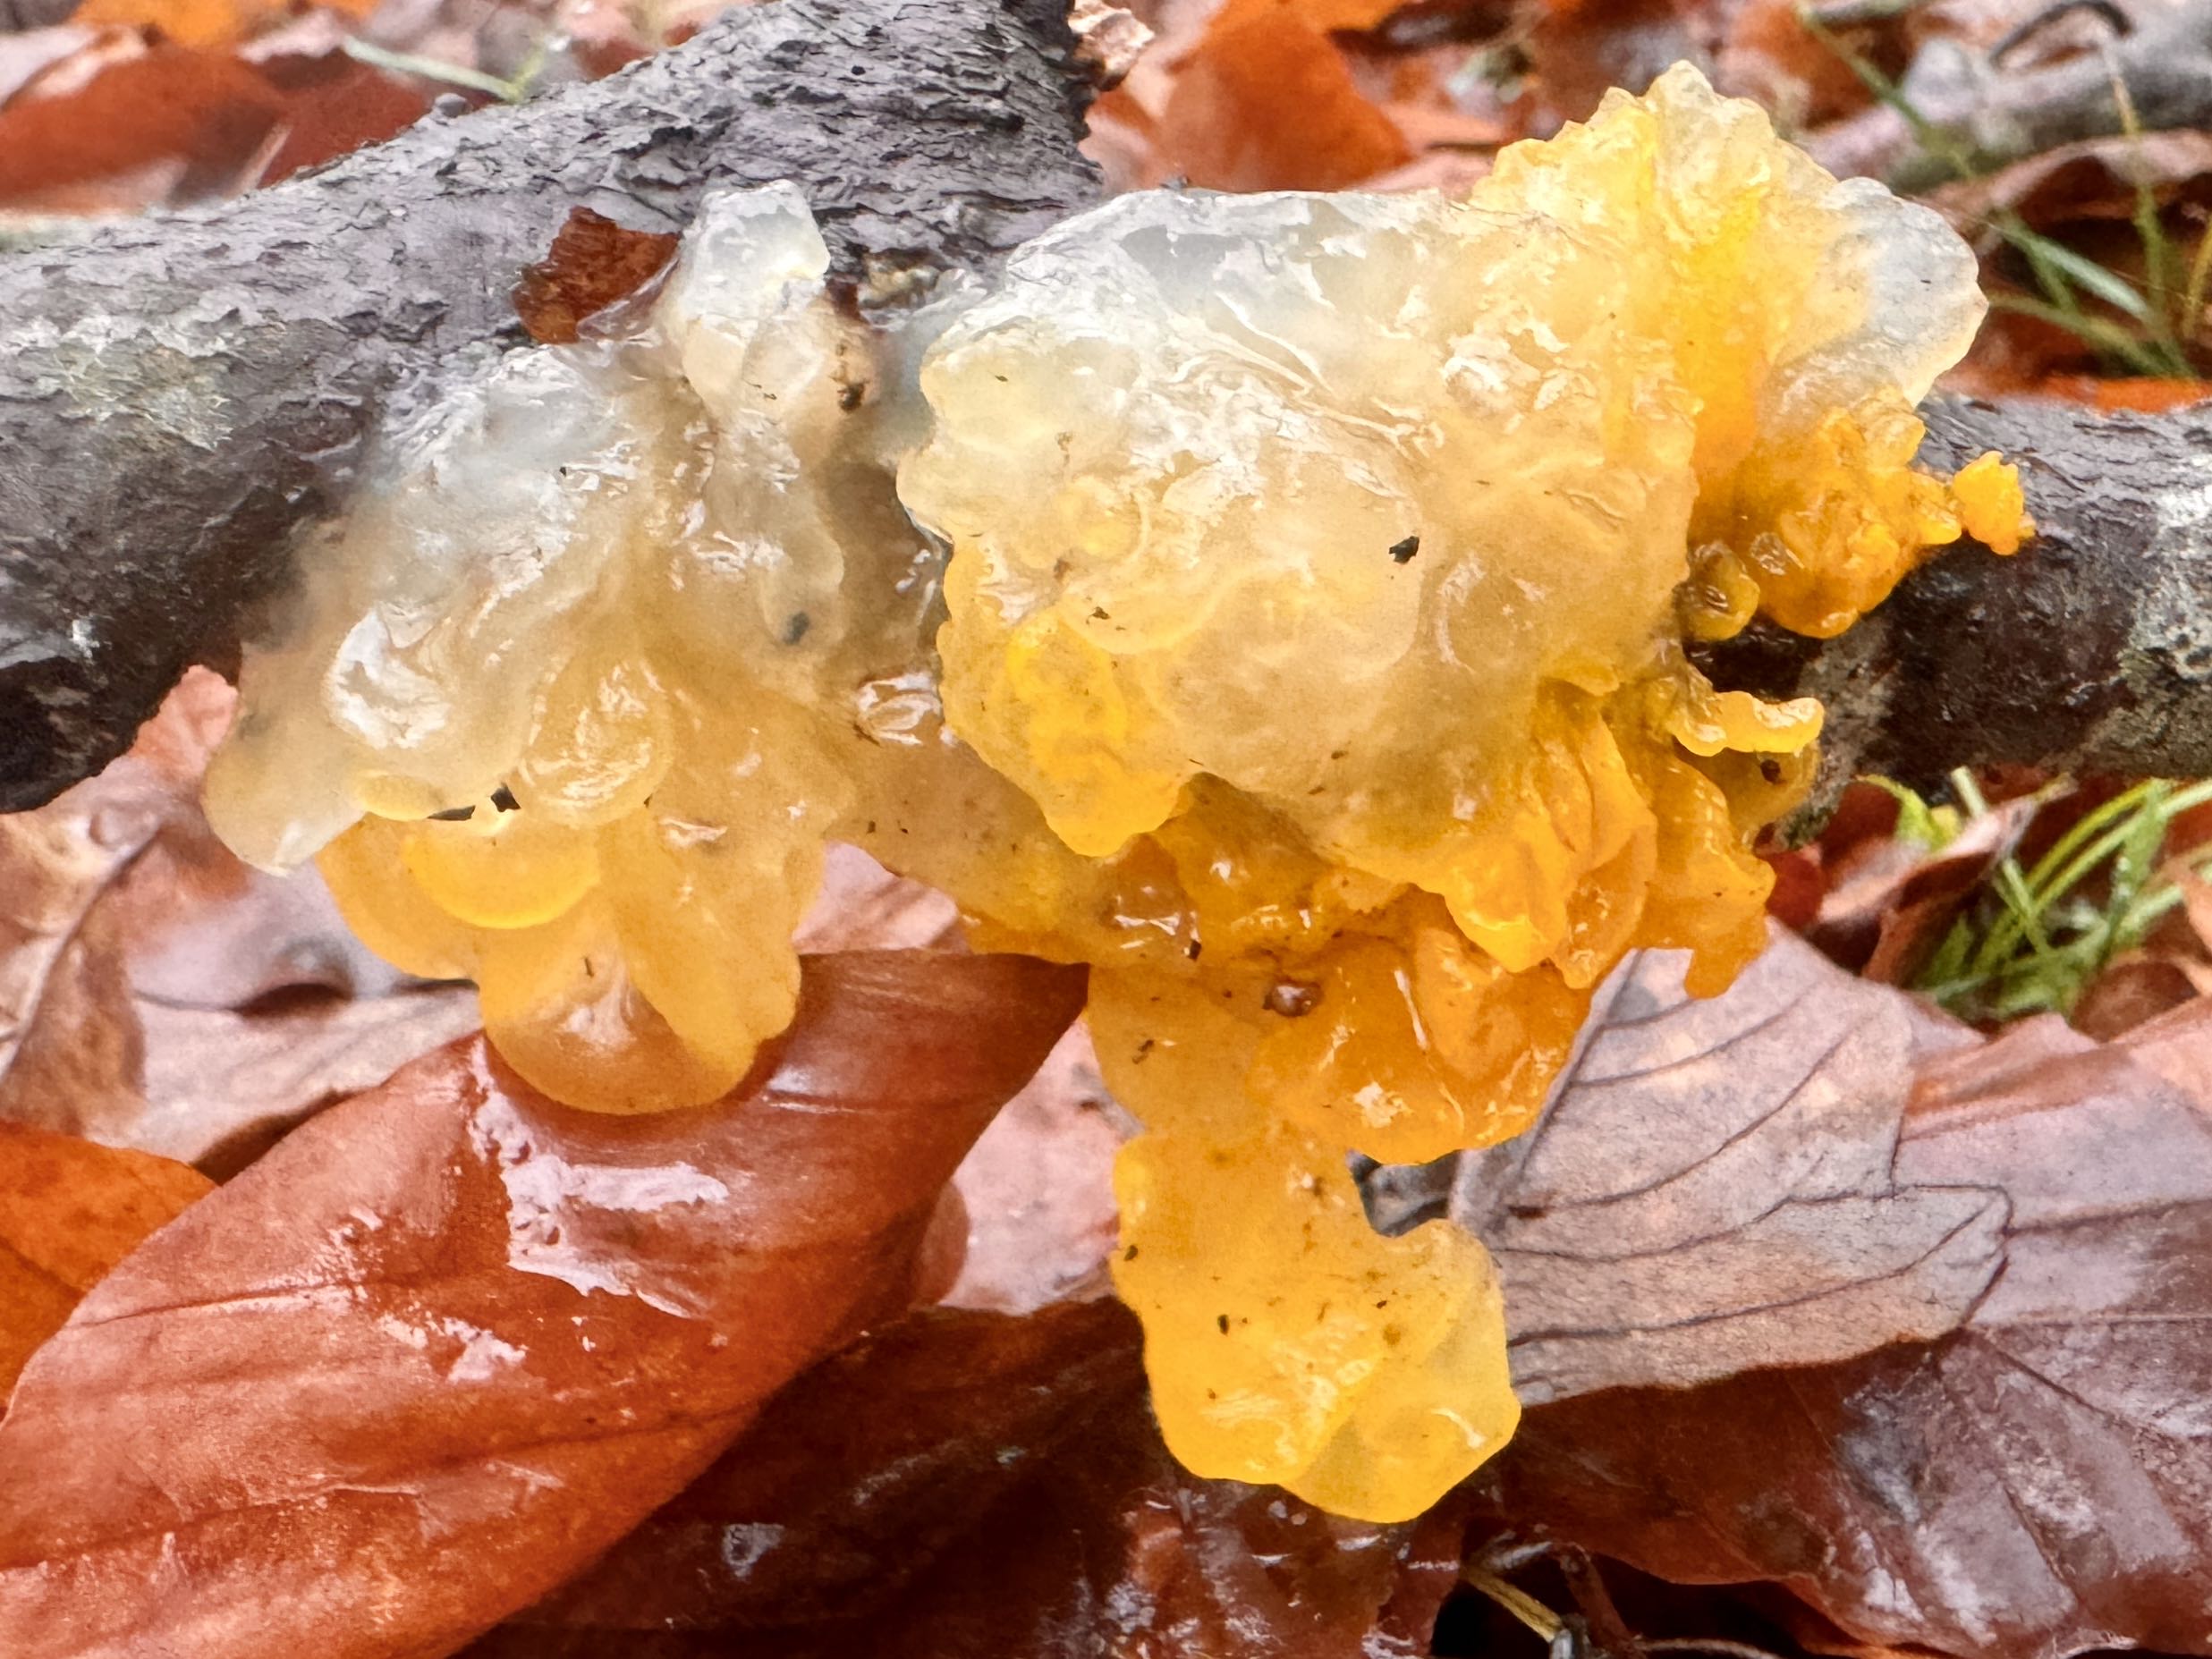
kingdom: Fungi
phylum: Basidiomycota
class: Tremellomycetes
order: Tremellales
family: Tremellaceae
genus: Tremella
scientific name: Tremella mesenterica
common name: gul bævresvamp
